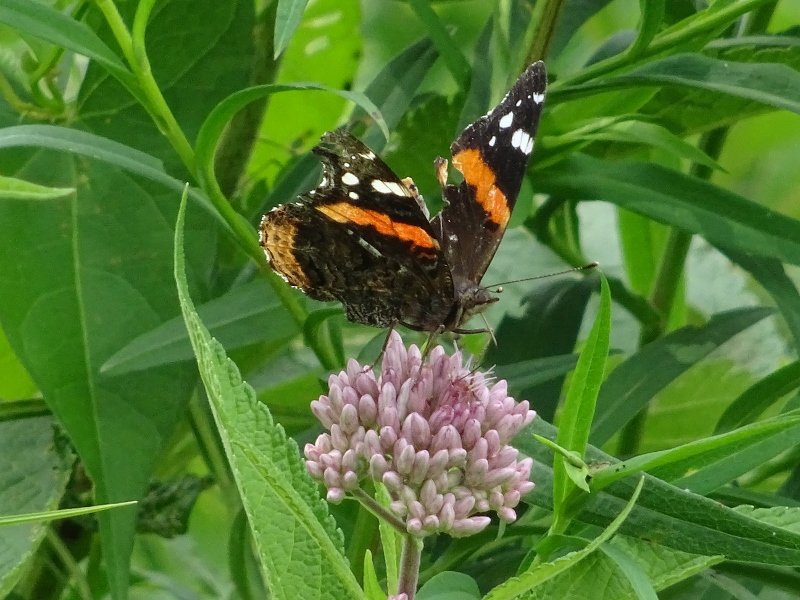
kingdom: Animalia
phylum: Arthropoda
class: Insecta
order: Lepidoptera
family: Nymphalidae
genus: Vanessa
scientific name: Vanessa atalanta
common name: Red Admiral
